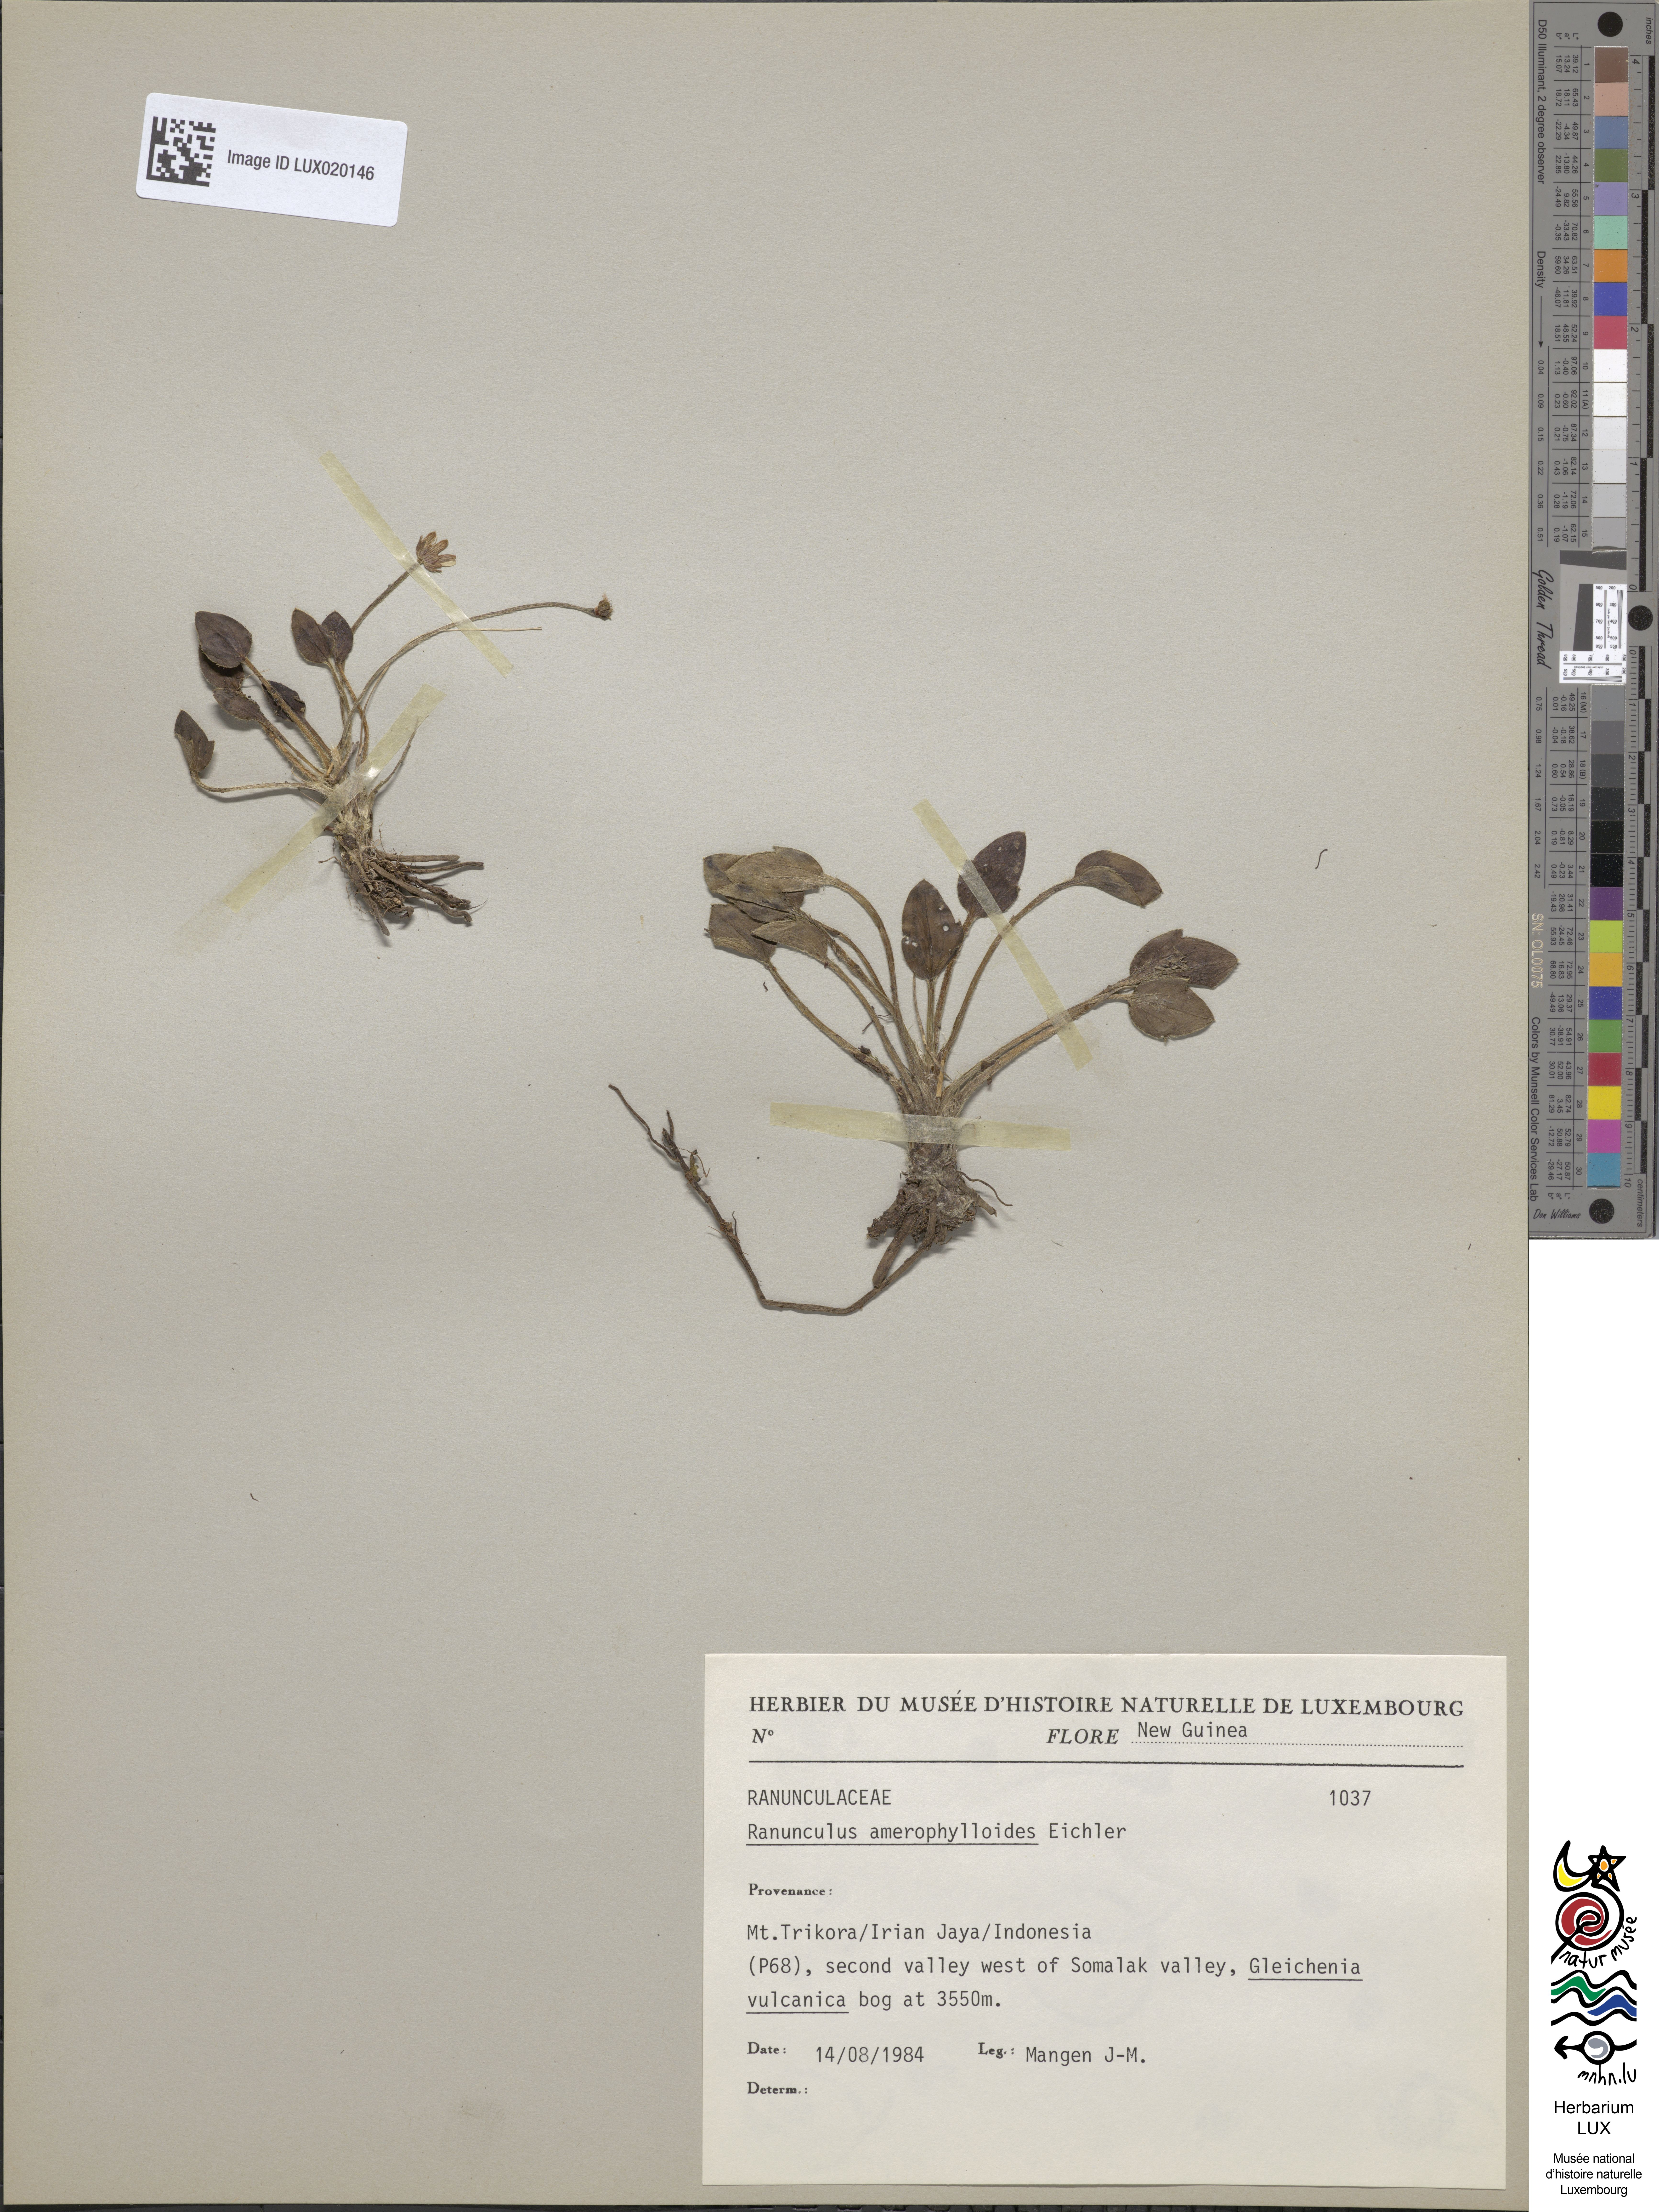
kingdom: Plantae
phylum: Tracheophyta
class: Magnoliopsida
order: Ranunculales
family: Ranunculaceae
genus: Ranunculus
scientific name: Ranunculus amerophylloides
